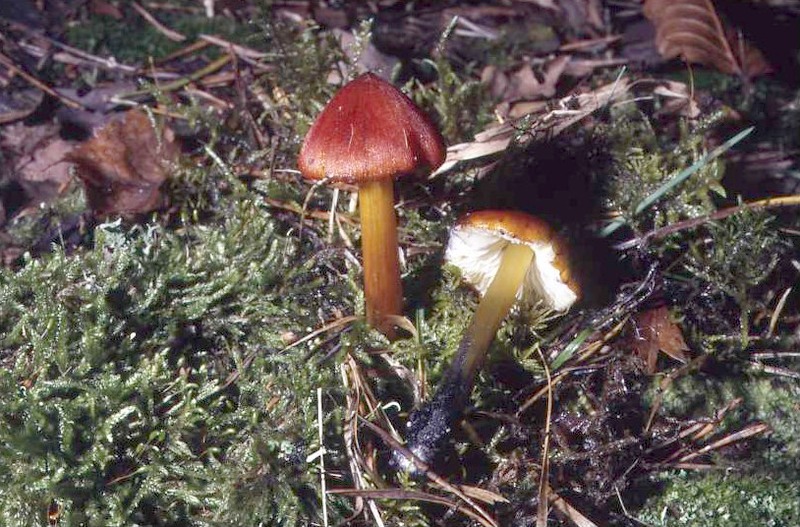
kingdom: Fungi
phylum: Basidiomycota
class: Agaricomycetes
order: Agaricales
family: Hygrophoraceae
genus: Hygrocybe
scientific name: Hygrocybe conica
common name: Blackening wax-cap
